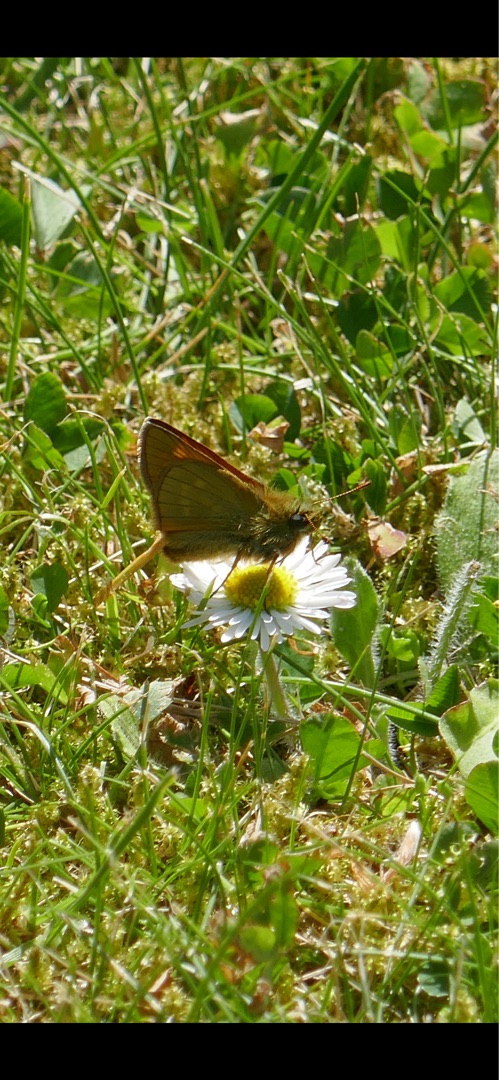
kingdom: Animalia
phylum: Arthropoda
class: Insecta
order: Lepidoptera
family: Hesperiidae
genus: Ochlodes
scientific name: Ochlodes venata
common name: Stor bredpande
